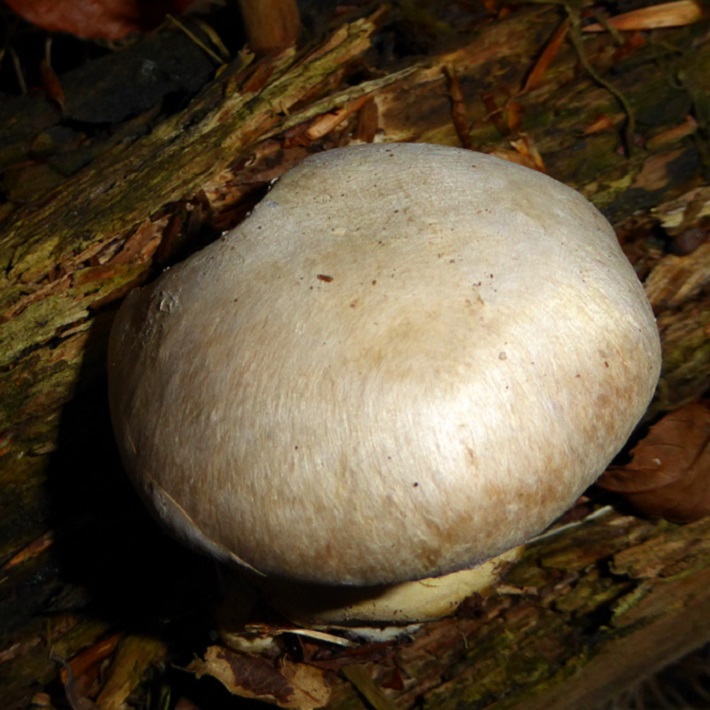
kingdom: Fungi
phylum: Basidiomycota
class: Agaricomycetes
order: Agaricales
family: Cortinariaceae
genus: Cortinarius
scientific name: Cortinarius foetens
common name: stribet slørhat
